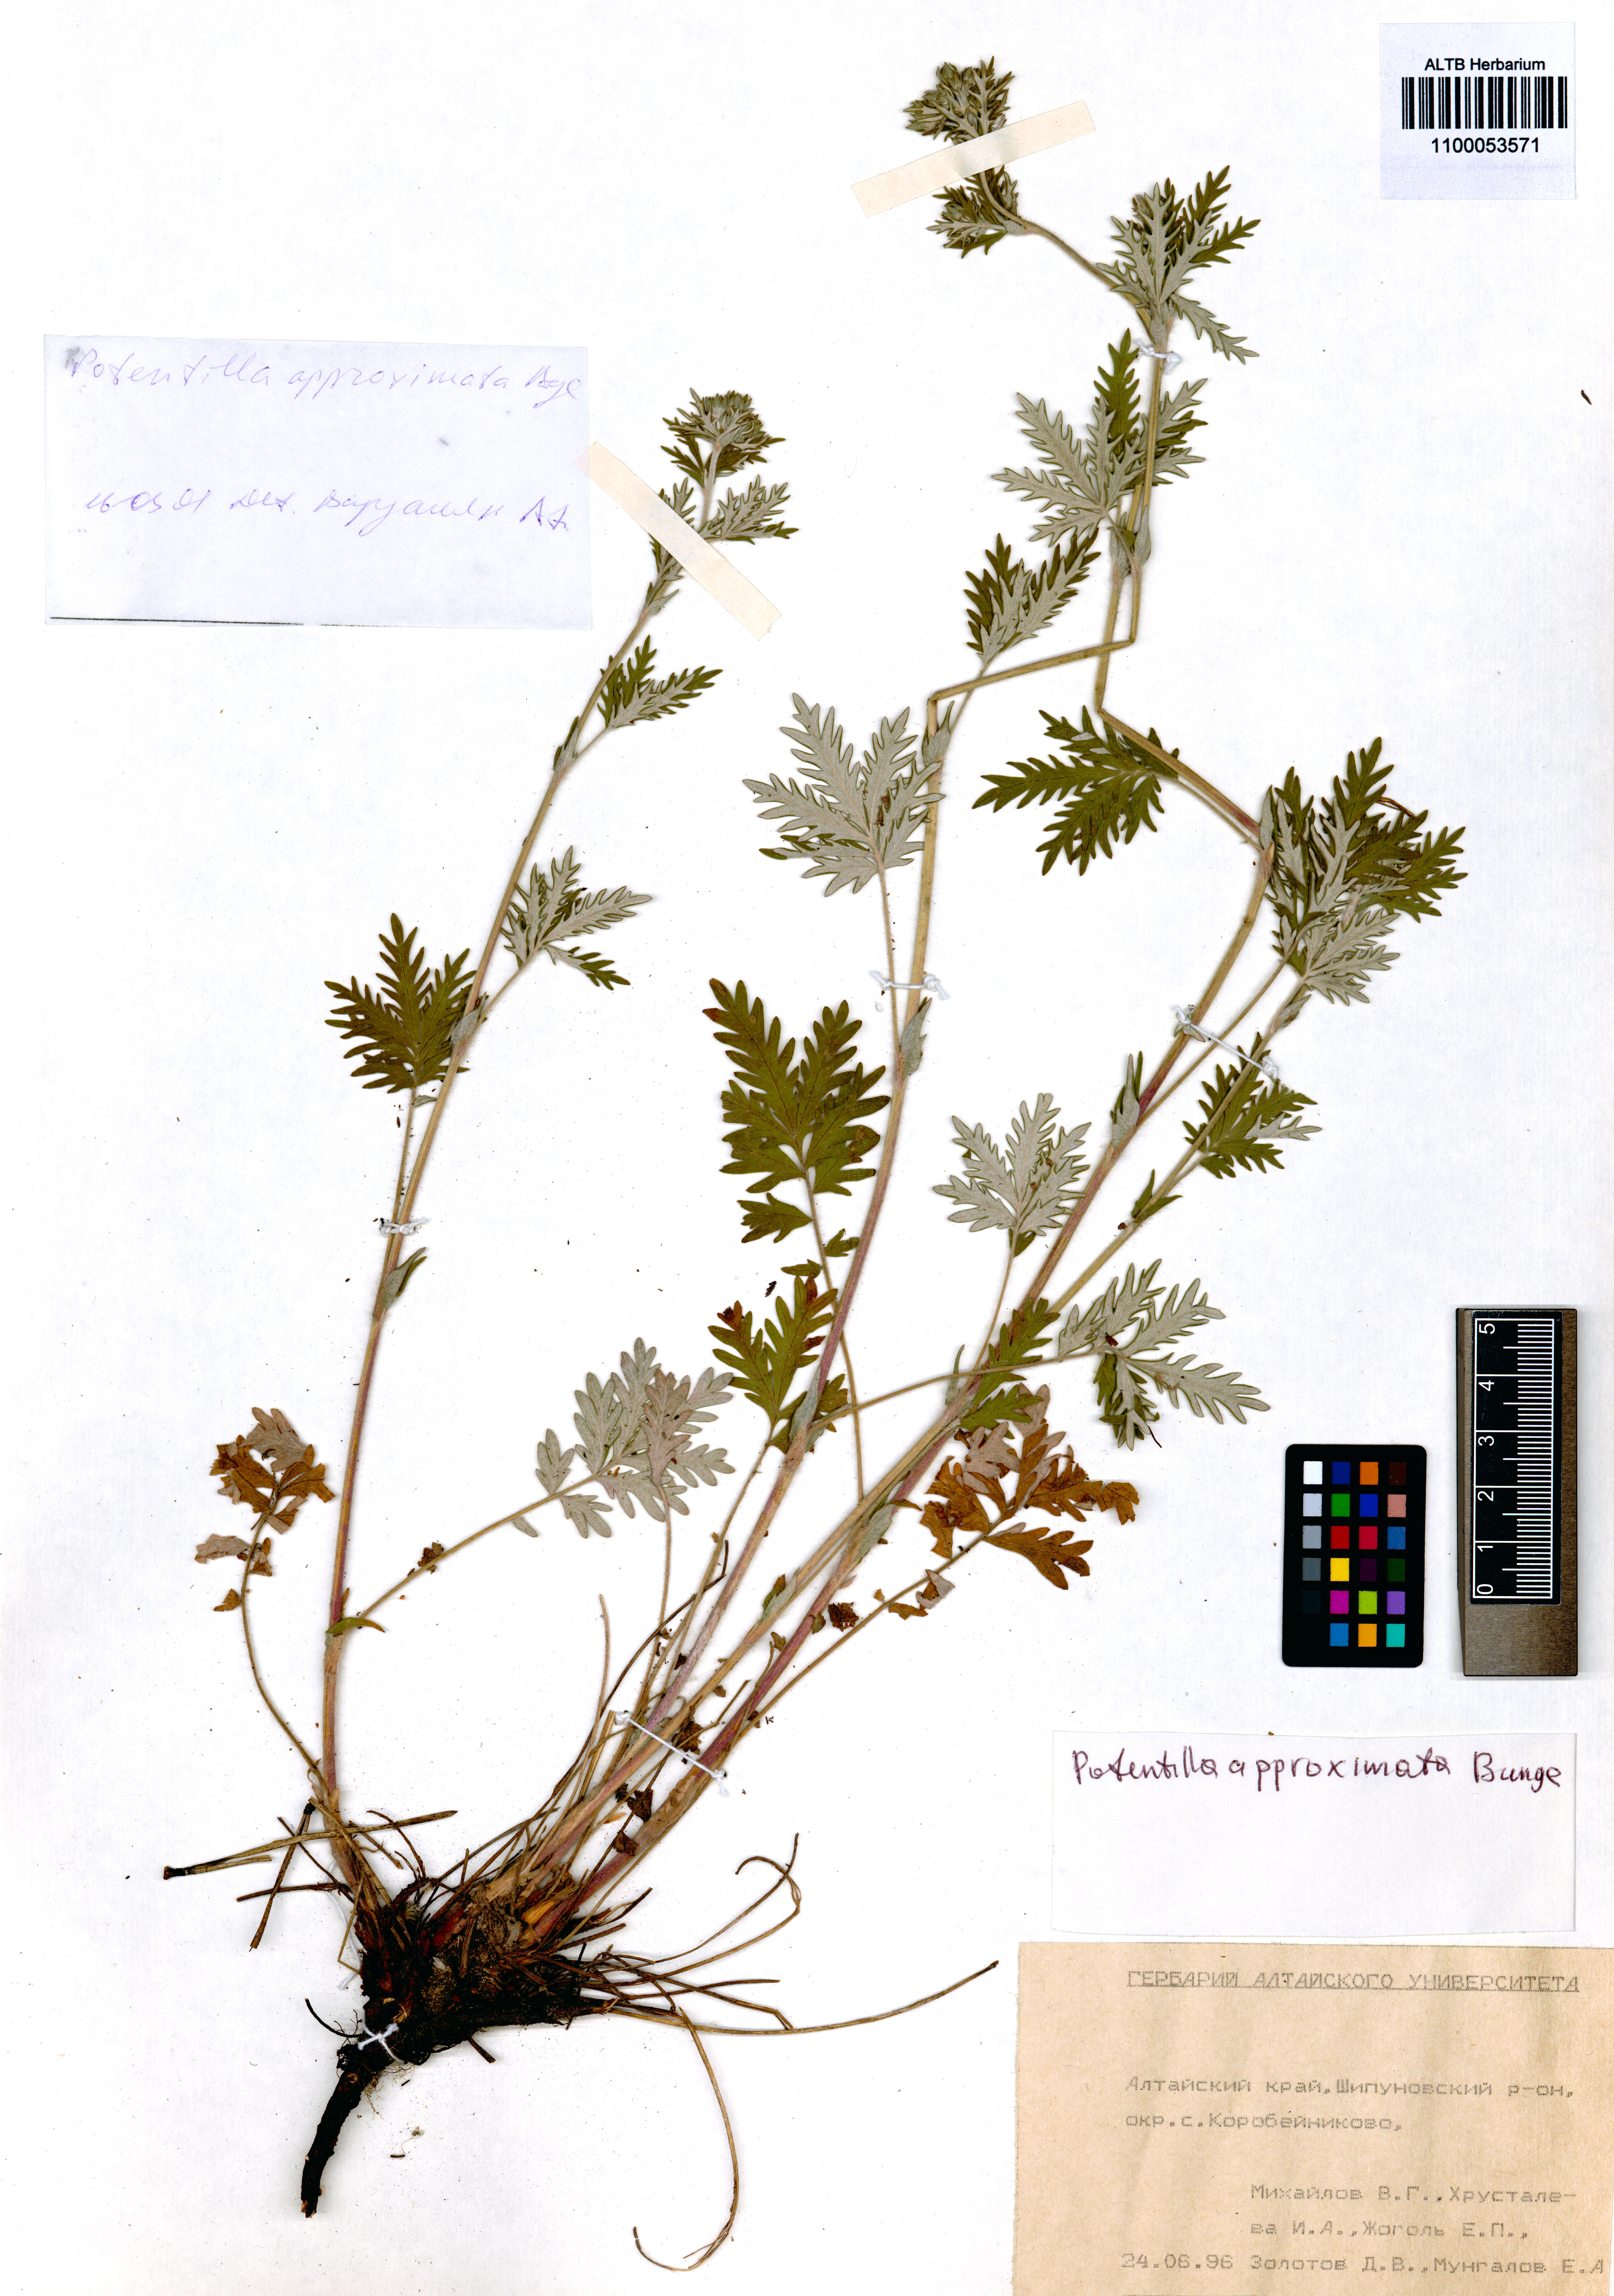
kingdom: Plantae
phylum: Tracheophyta
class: Magnoliopsida
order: Rosales
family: Rosaceae
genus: Potentilla
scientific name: Potentilla conferta
